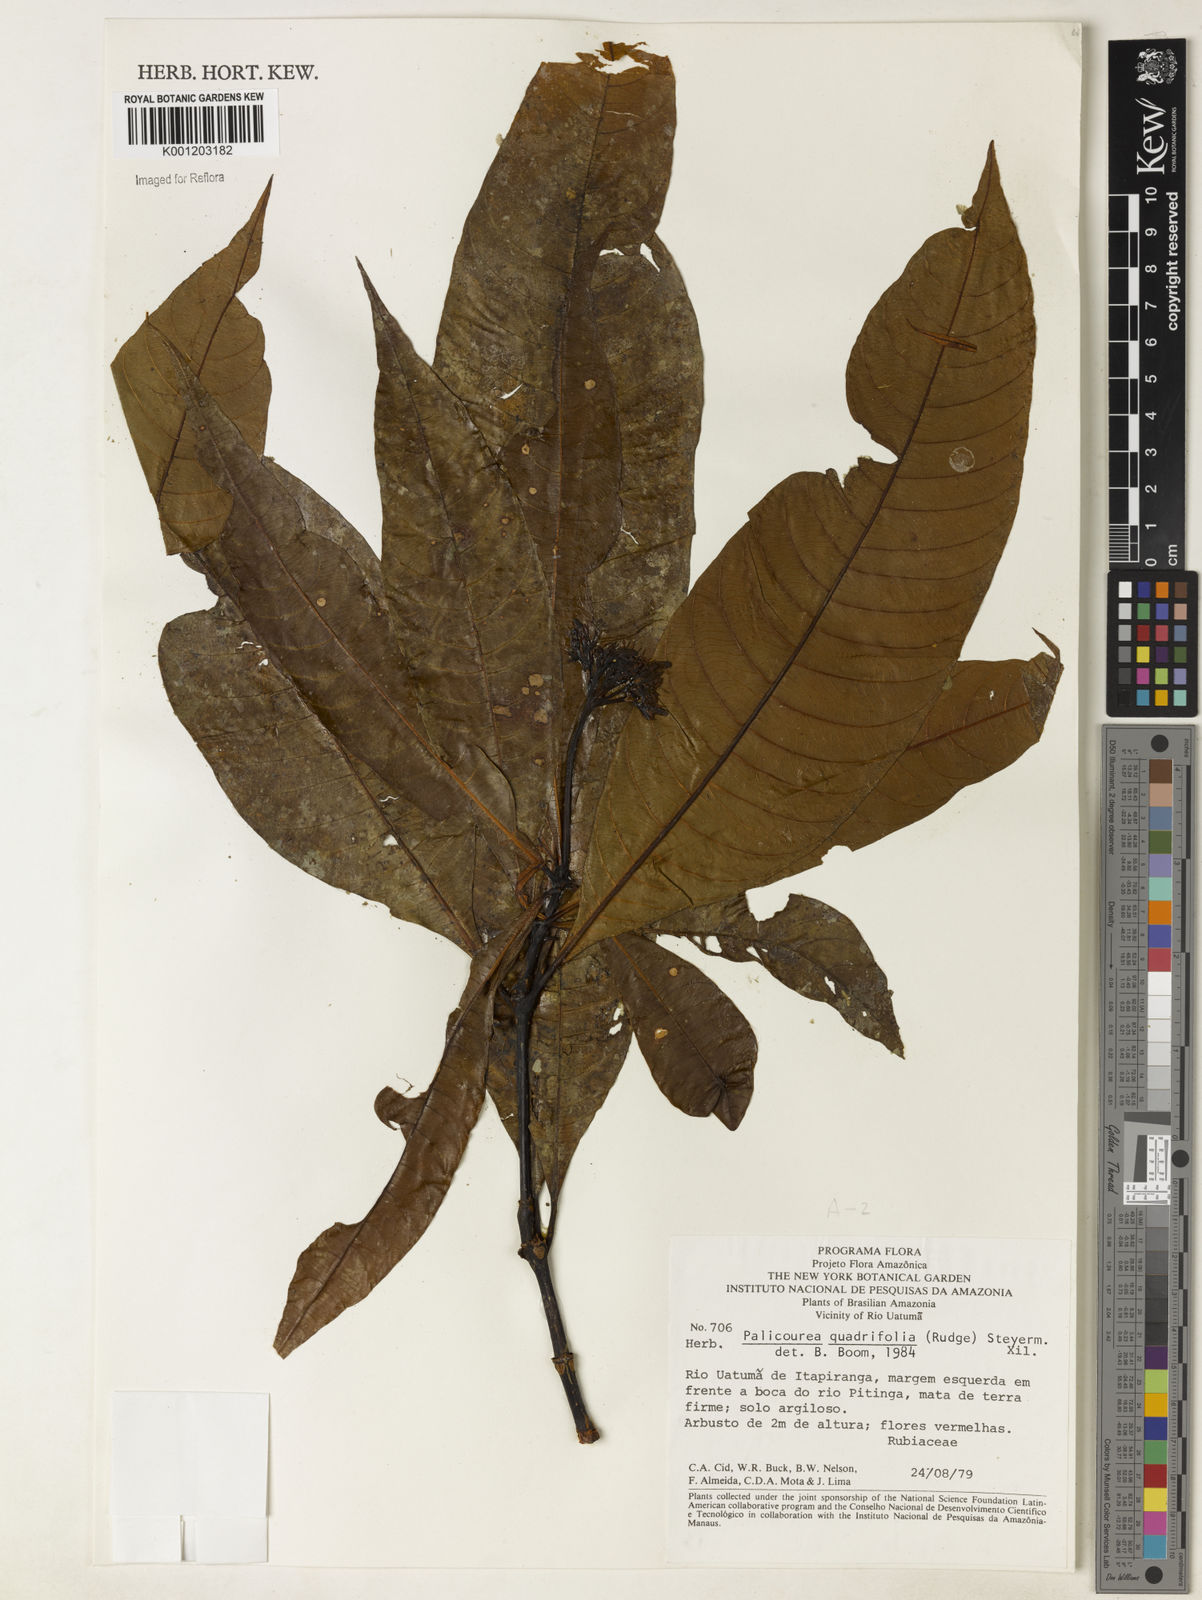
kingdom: Plantae
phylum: Tracheophyta
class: Magnoliopsida
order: Gentianales
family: Rubiaceae
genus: Palicourea
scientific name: Palicourea quadrifolia
